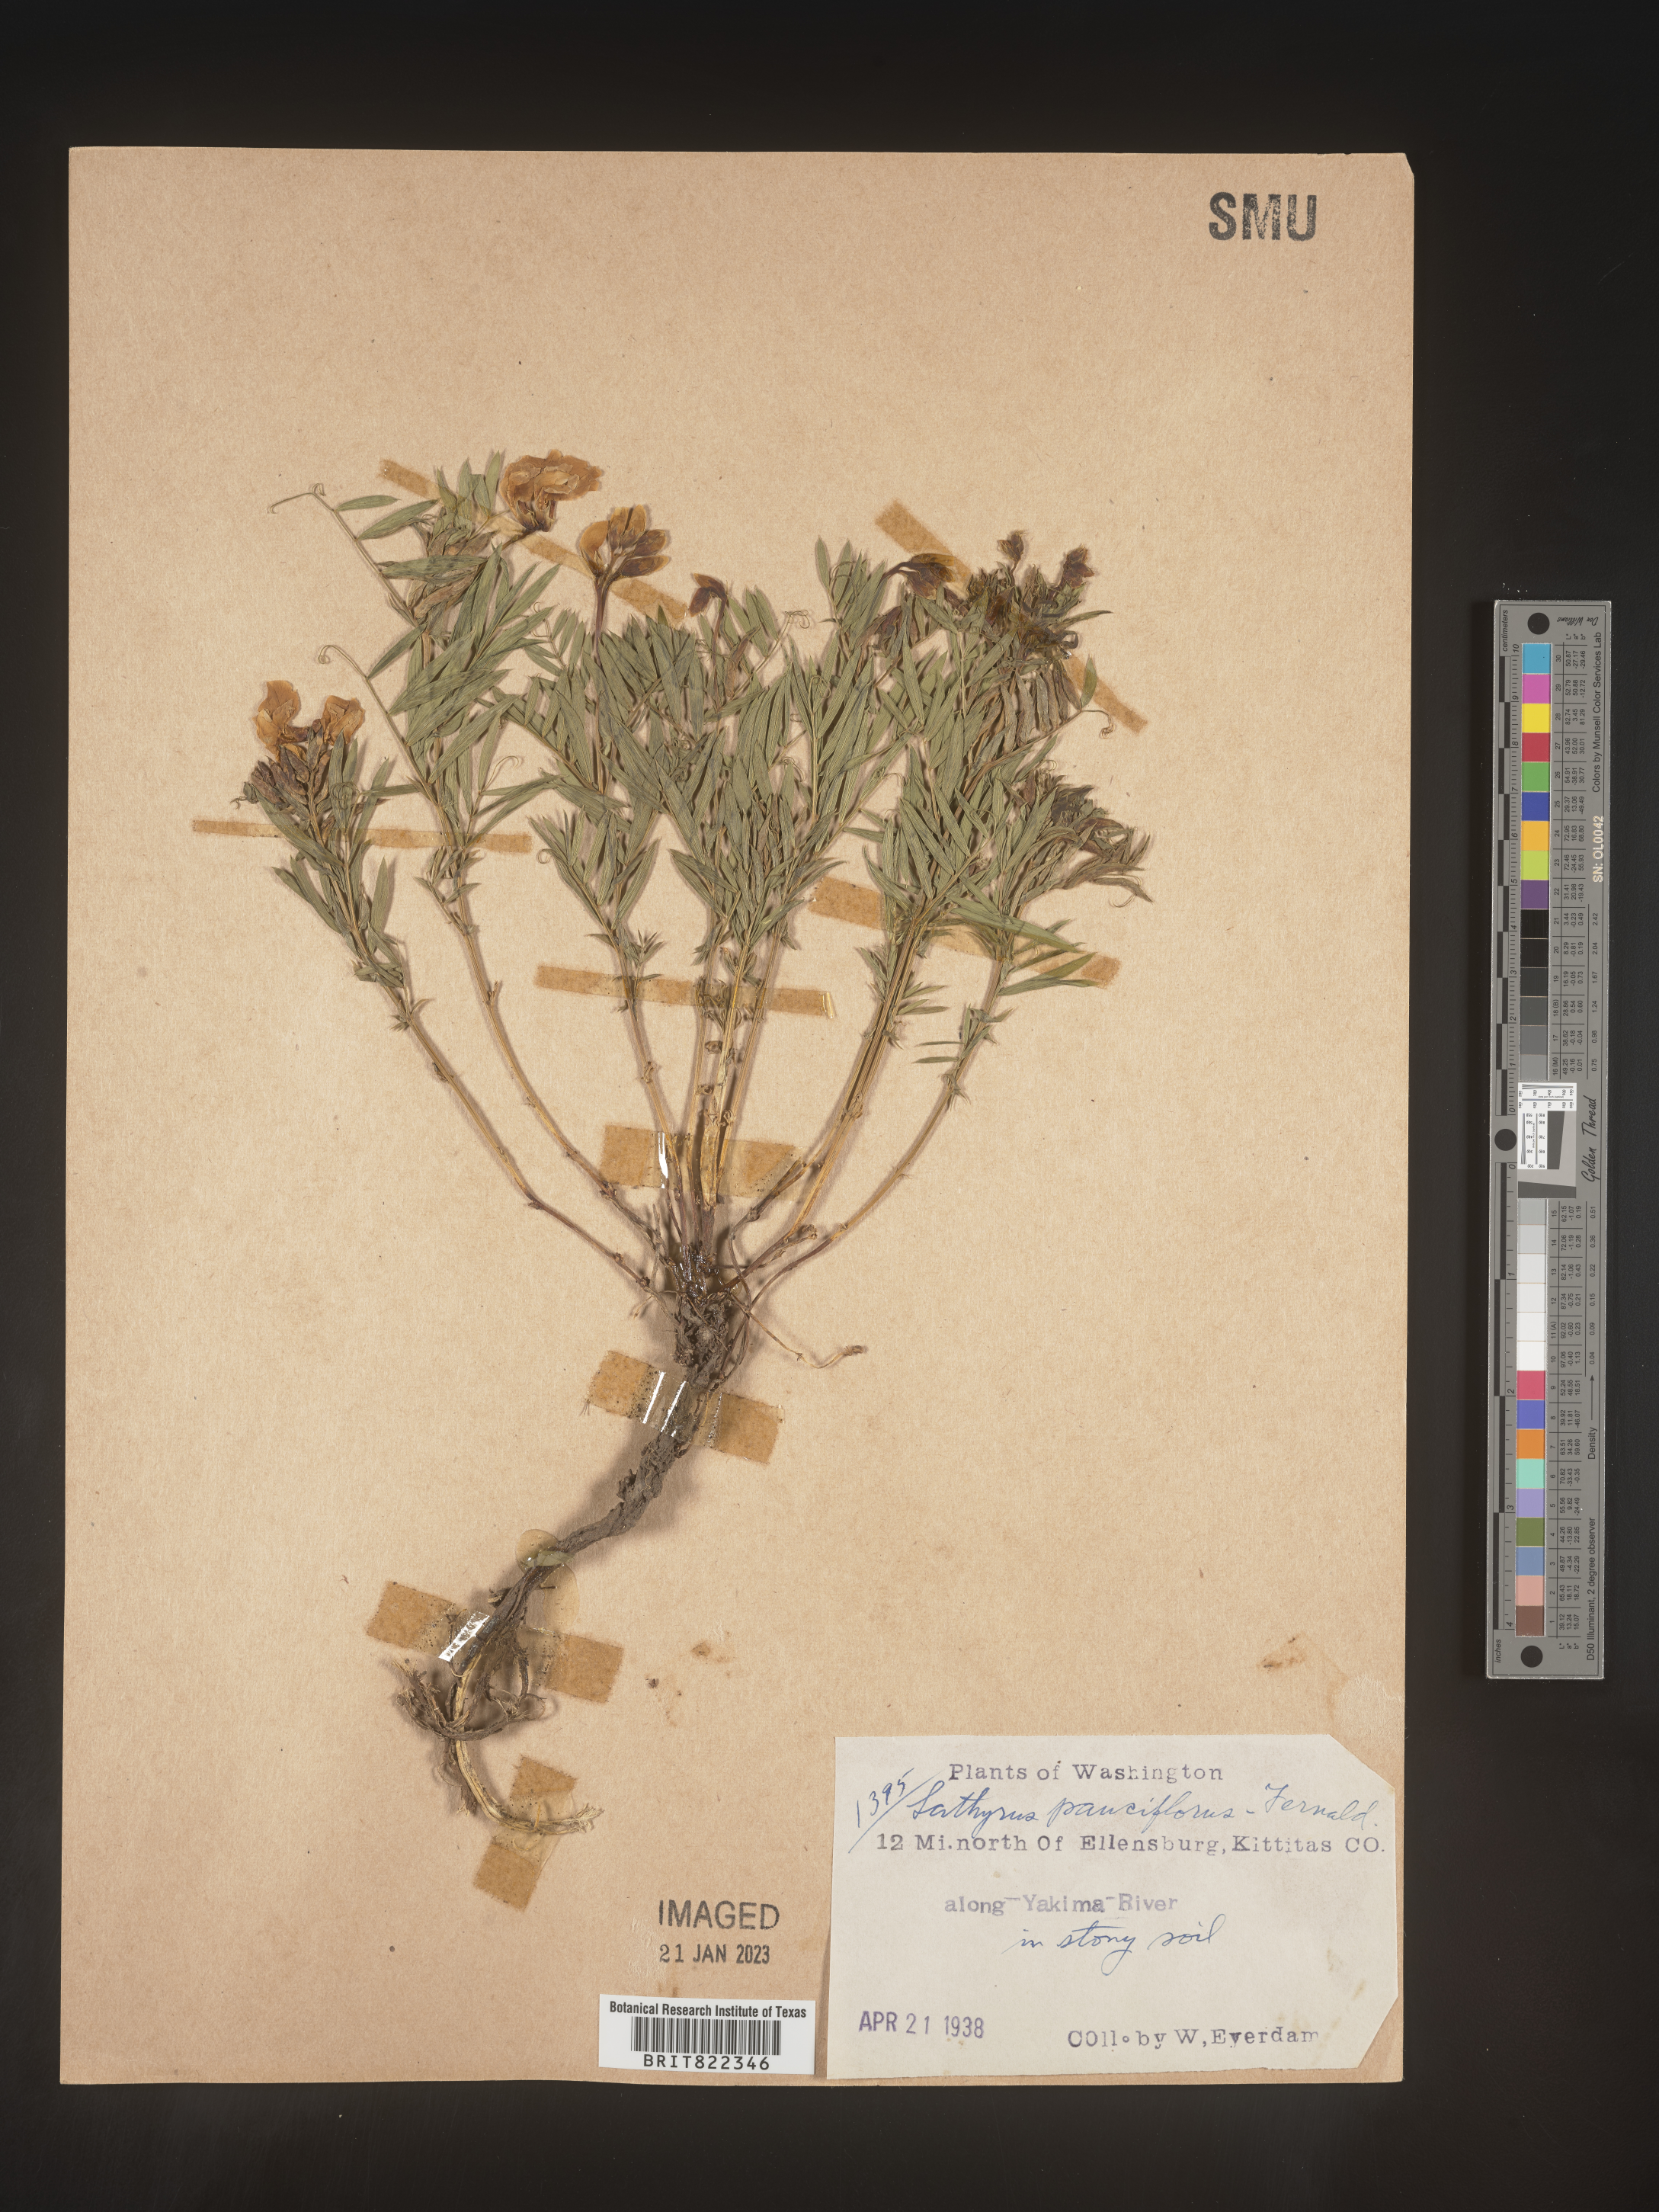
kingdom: Plantae
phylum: Tracheophyta
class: Magnoliopsida
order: Fabales
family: Fabaceae
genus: Lathyrus
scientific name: Lathyrus pauciflorus
